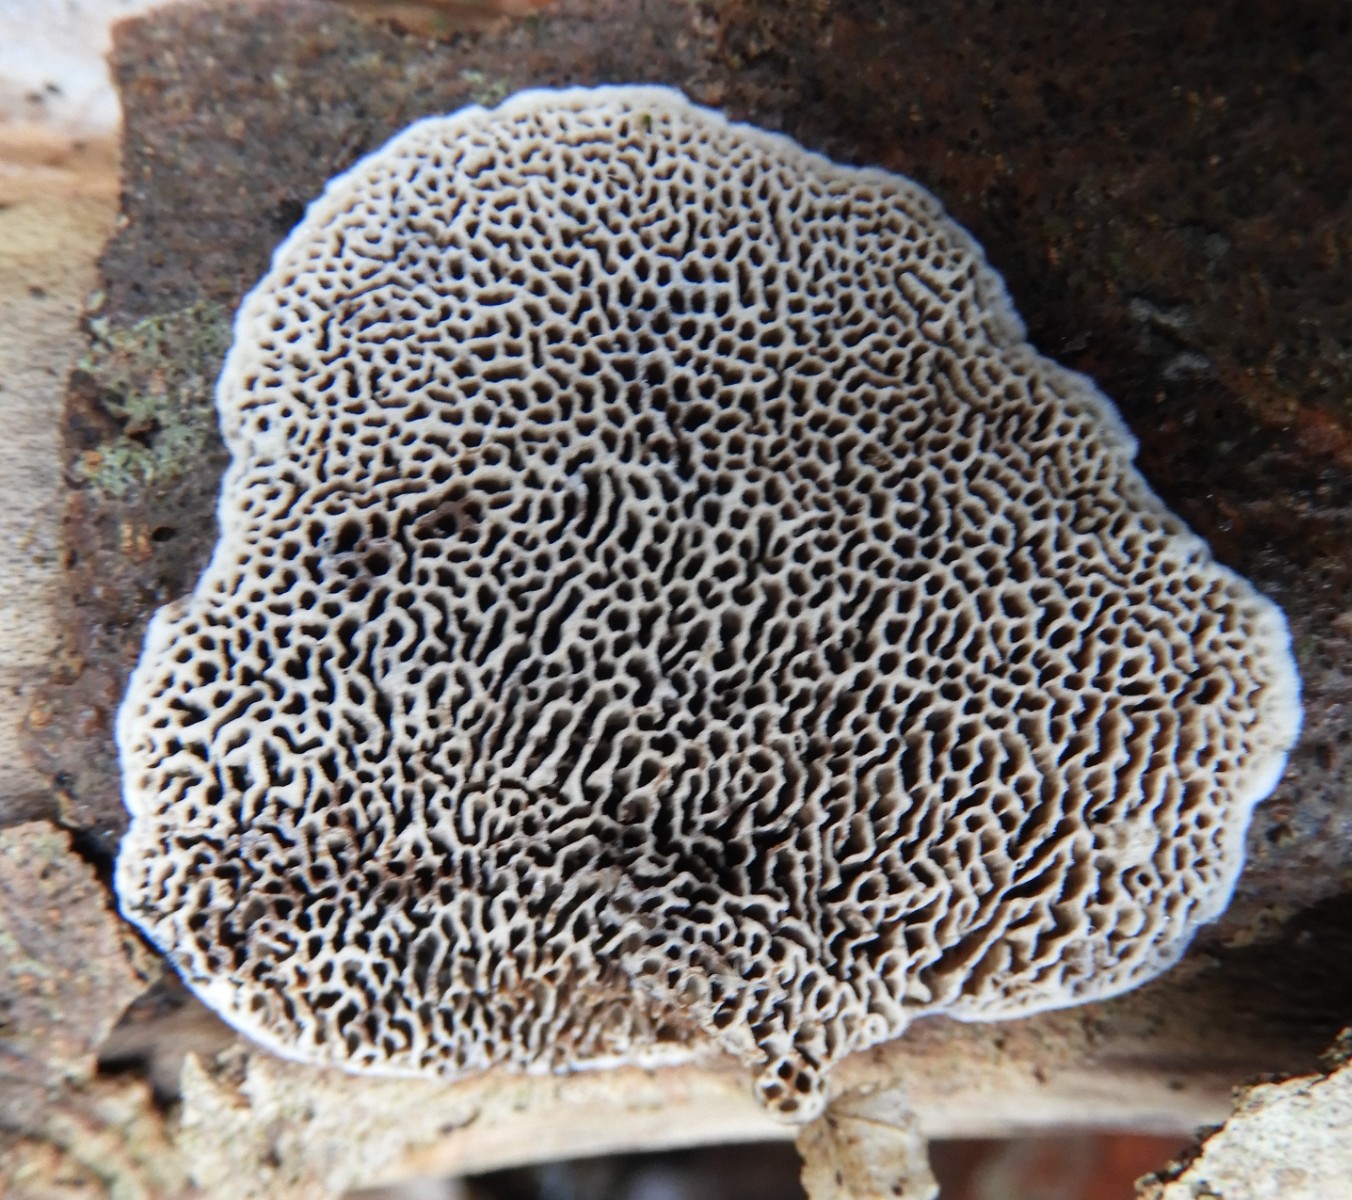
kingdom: Fungi
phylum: Basidiomycota
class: Agaricomycetes
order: Polyporales
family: Polyporaceae
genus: Podofomes
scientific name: Podofomes mollis
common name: blød begporesvamp
